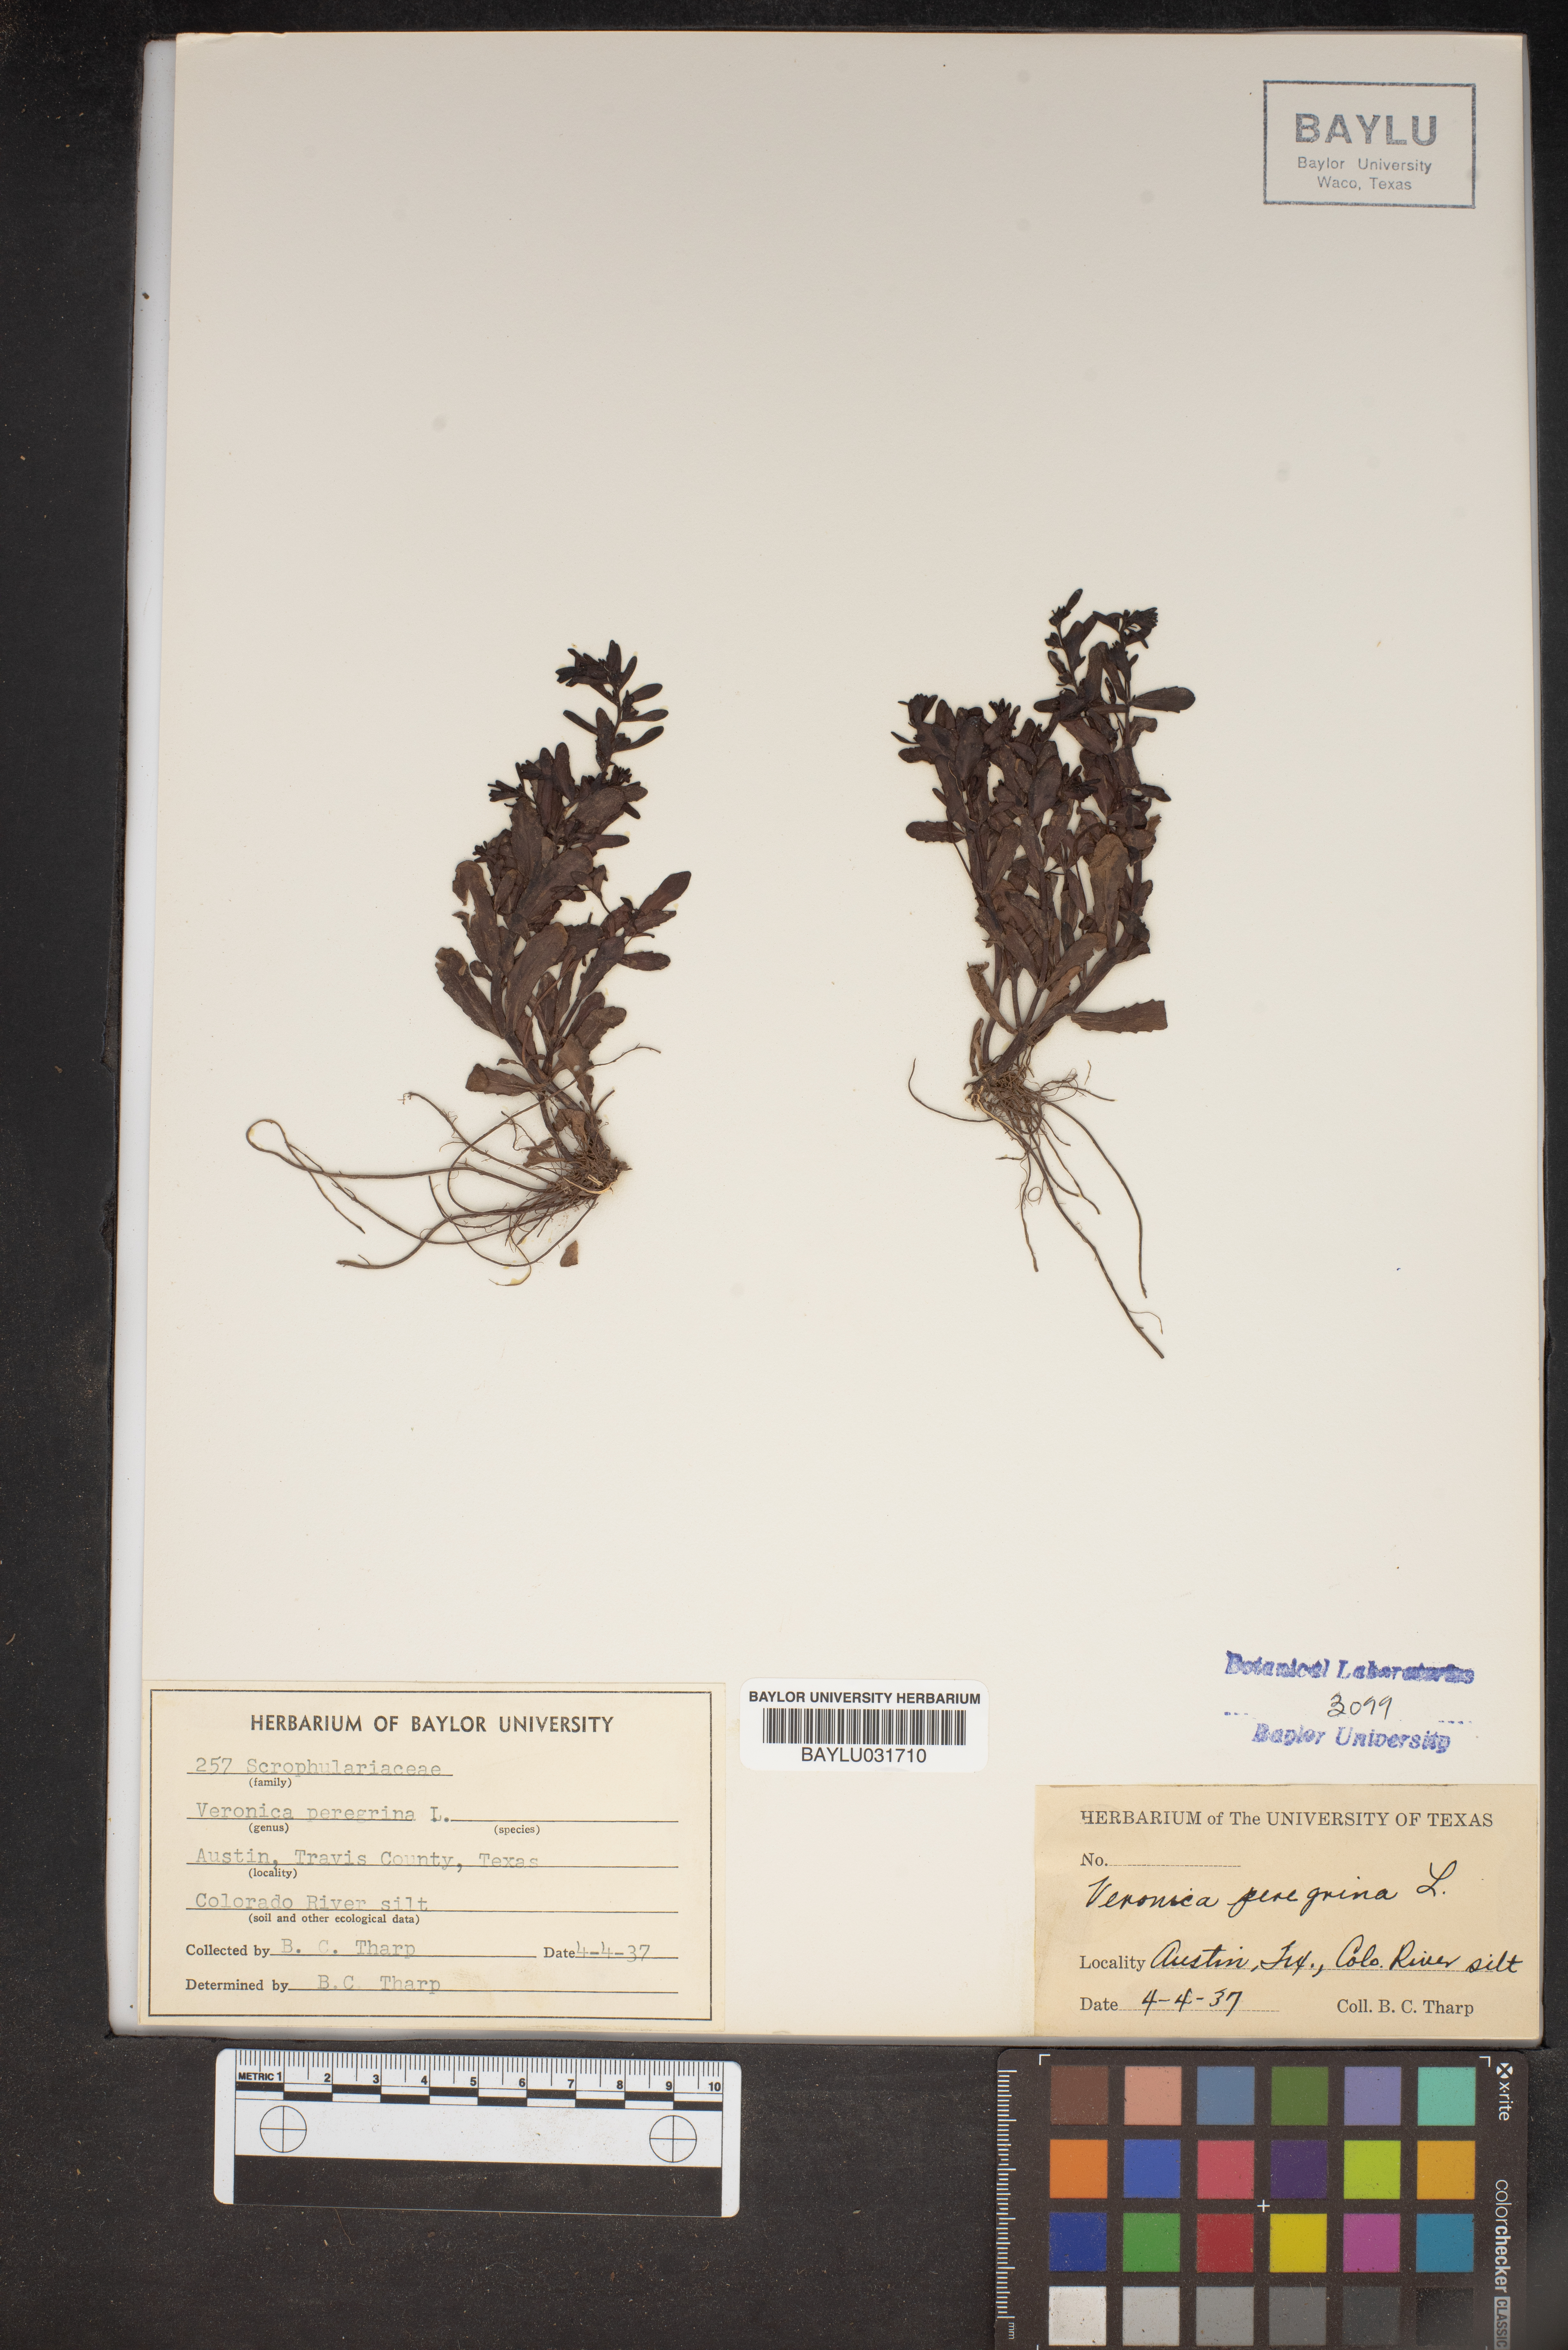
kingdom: Plantae
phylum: Tracheophyta
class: Magnoliopsida
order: Lamiales
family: Plantaginaceae
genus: Veronica
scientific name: Veronica peregrina
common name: Neckweed
